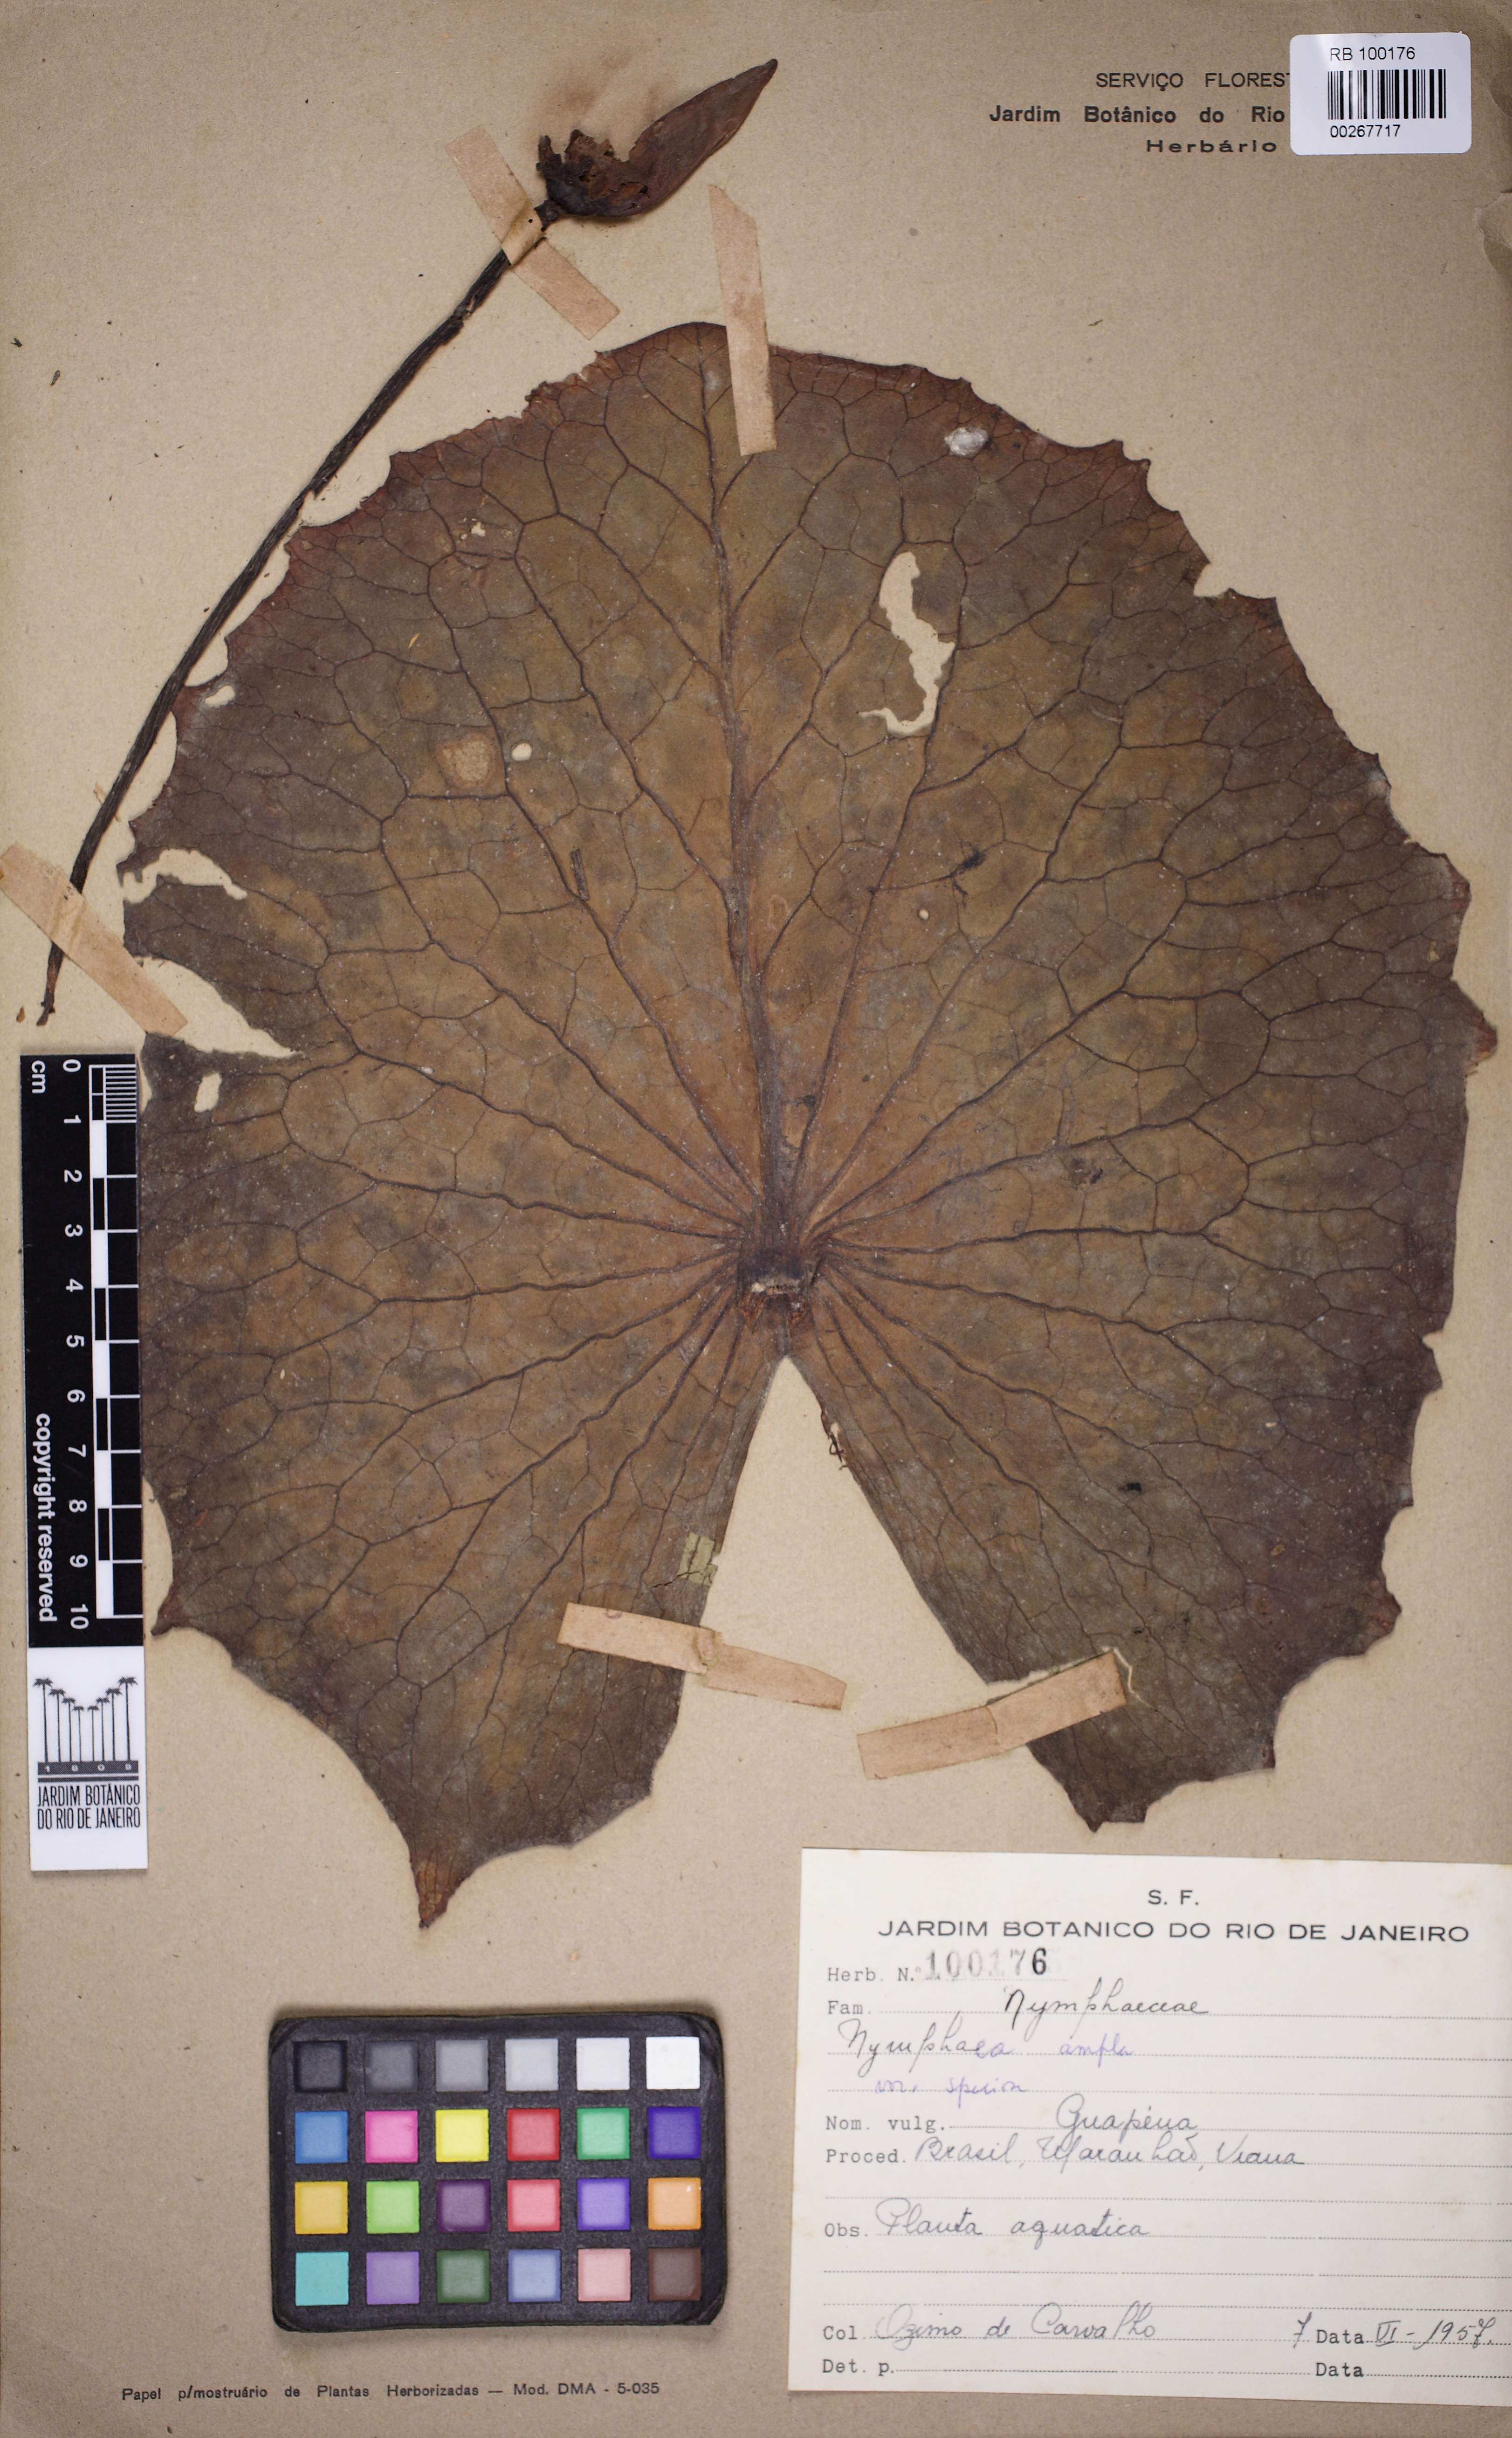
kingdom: Plantae
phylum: Tracheophyta
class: Magnoliopsida
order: Nymphaeales
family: Nymphaeaceae
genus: Nymphaea
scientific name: Nymphaea ampla
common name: Dotleaf waterlily
